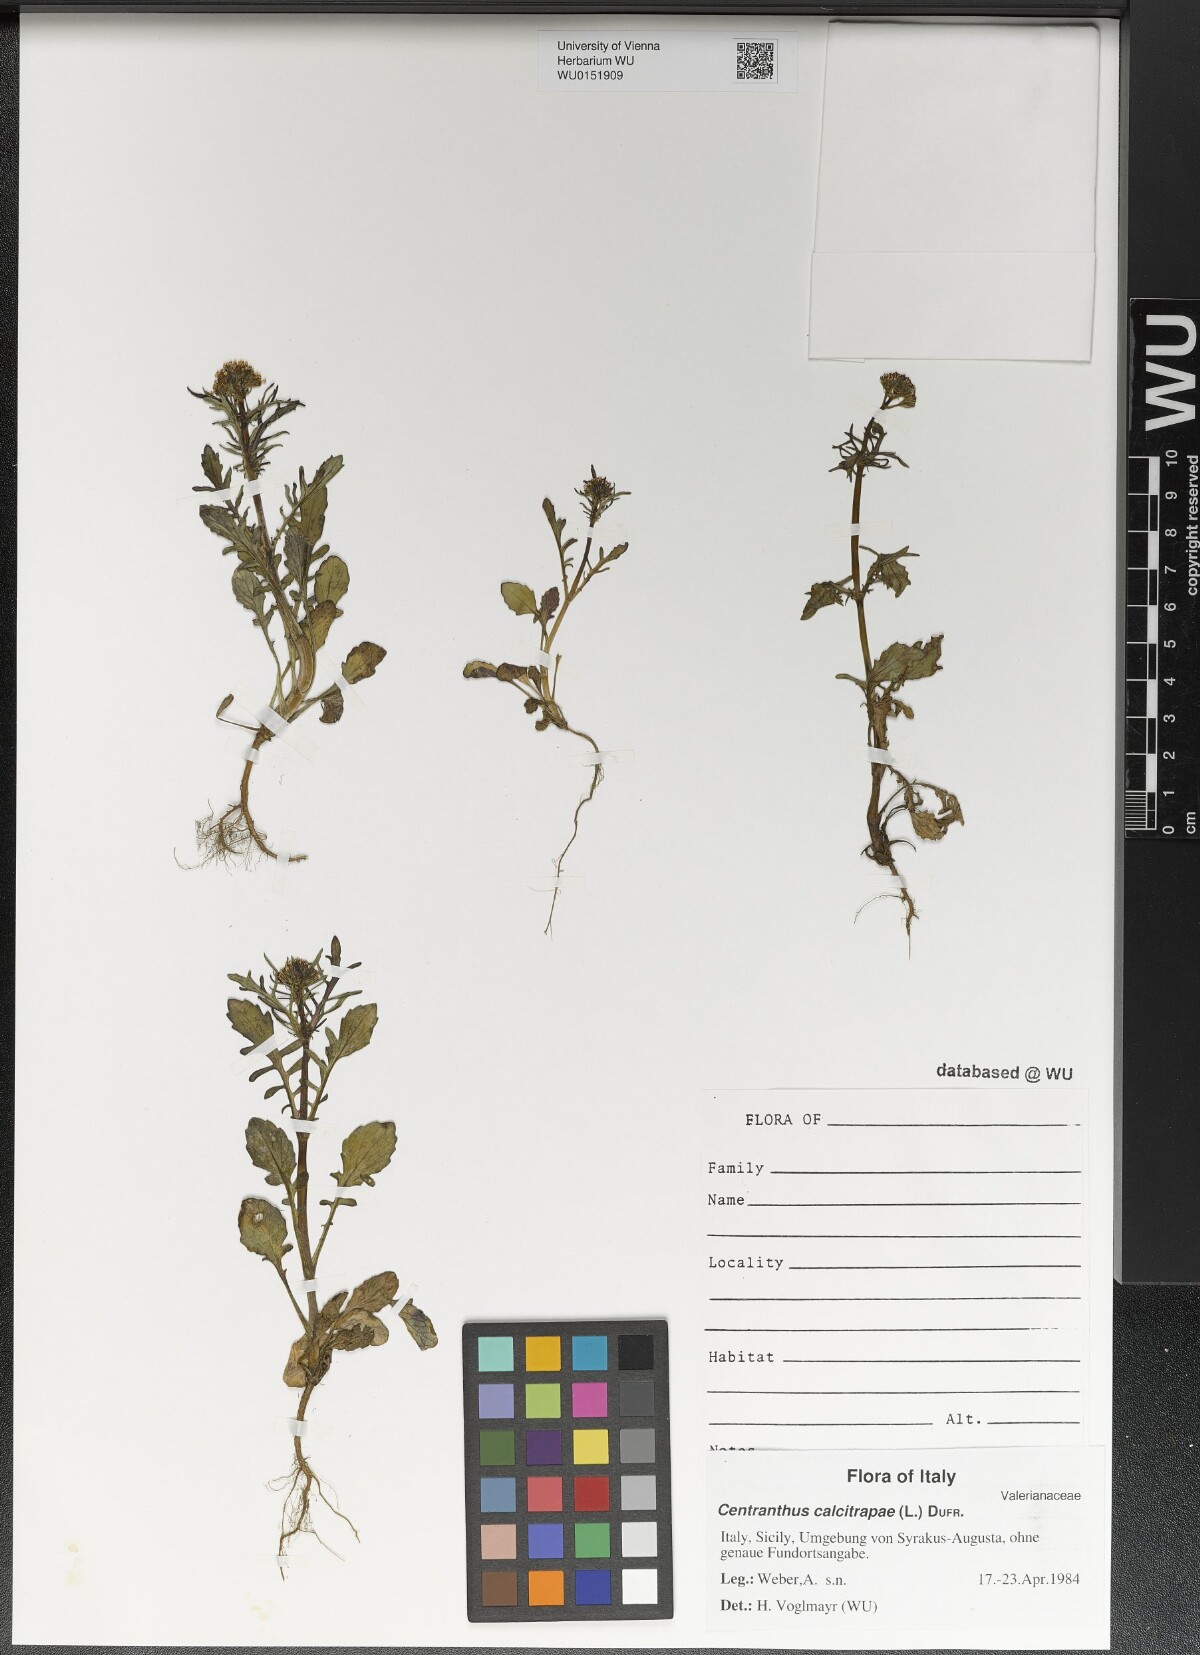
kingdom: Plantae
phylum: Tracheophyta
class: Magnoliopsida
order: Dipsacales
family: Caprifoliaceae
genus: Centranthus
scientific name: Centranthus calcitrapae
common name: Annual valerian
